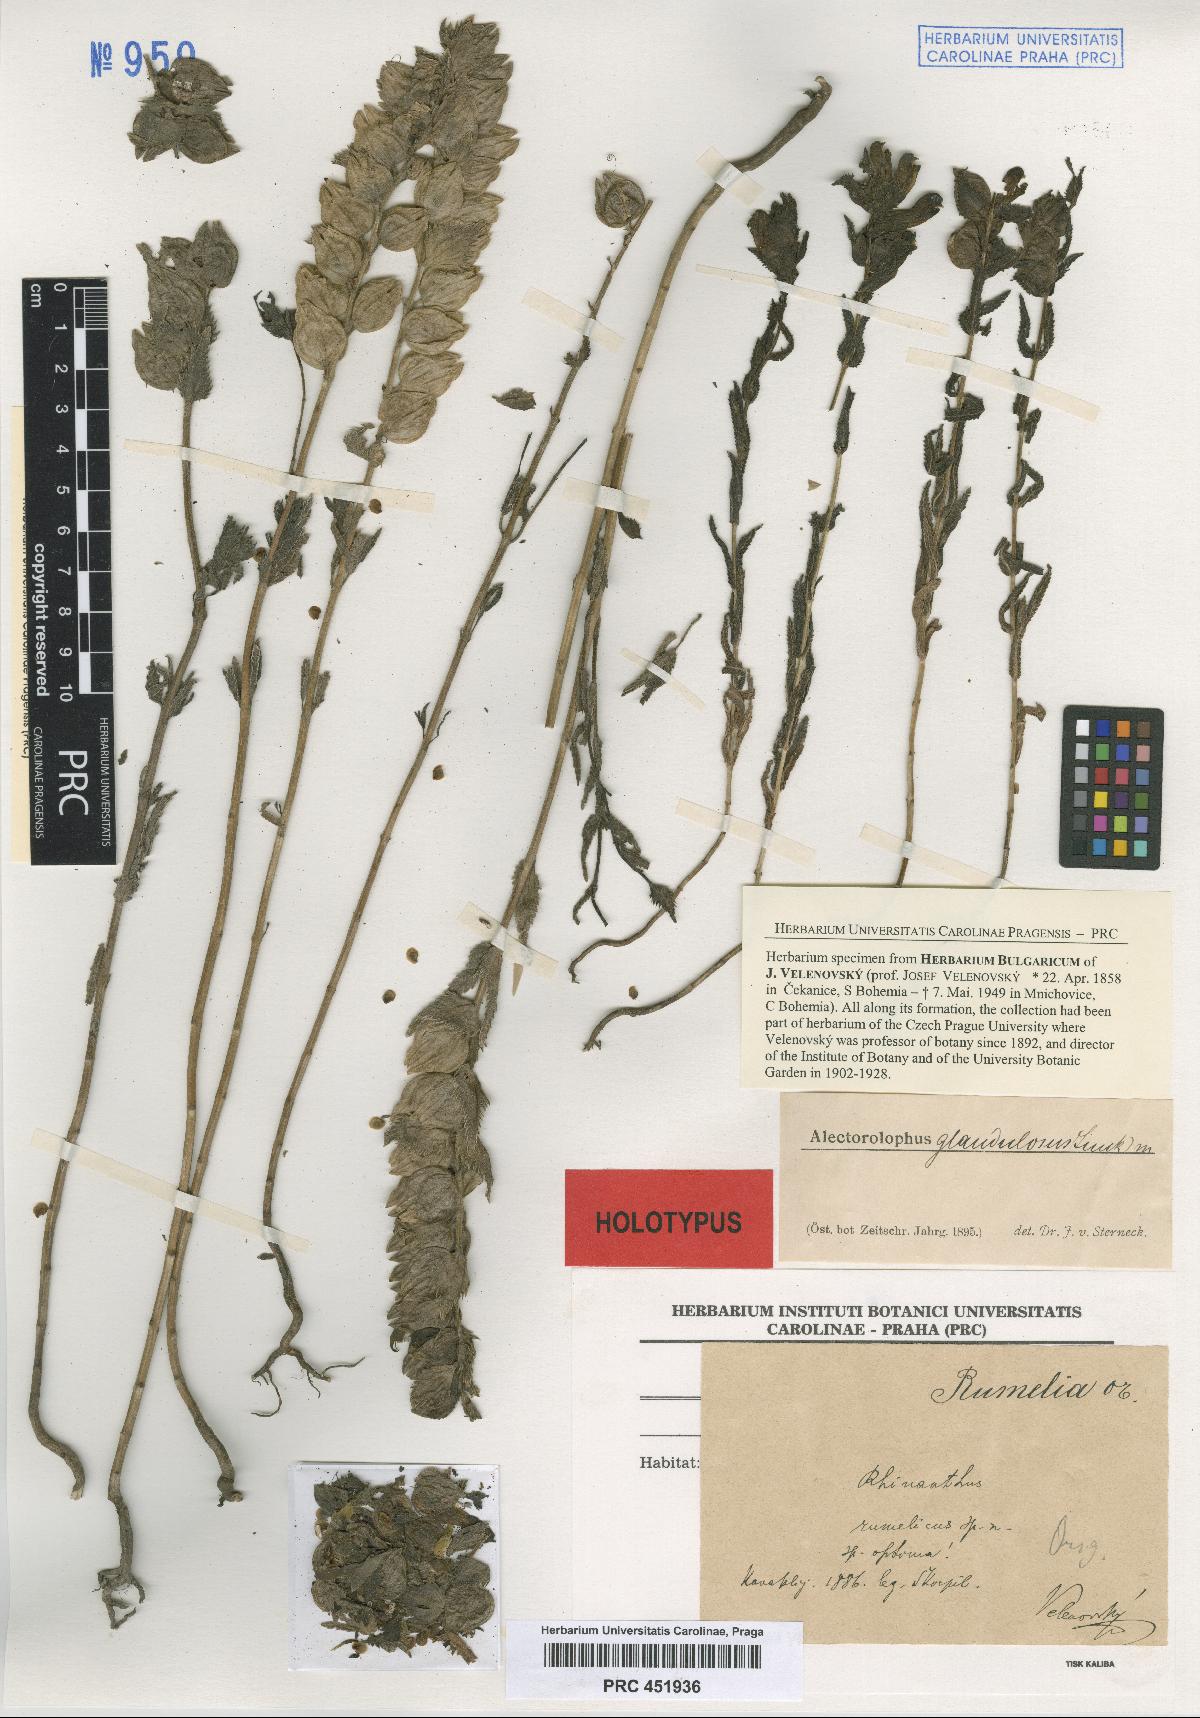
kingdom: Plantae
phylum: Tracheophyta
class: Magnoliopsida
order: Lamiales
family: Orobanchaceae
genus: Rhinanthus
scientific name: Rhinanthus rumelicus
